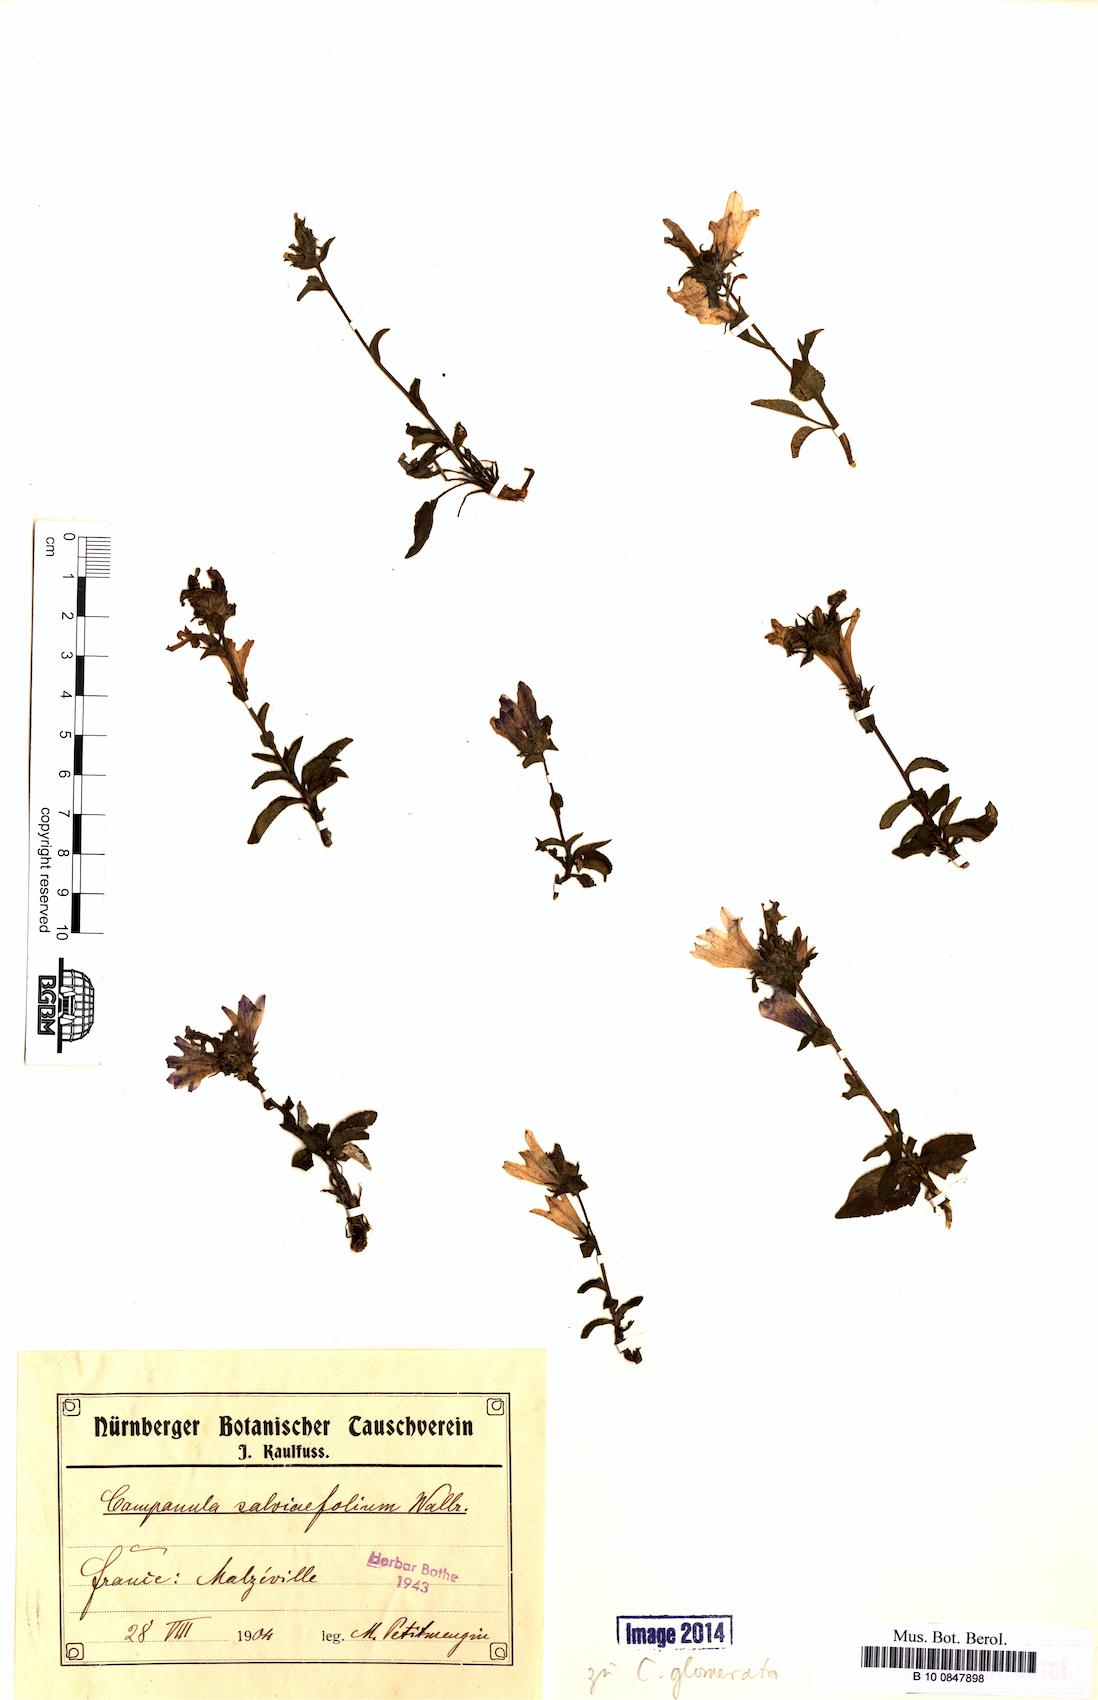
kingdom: Plantae
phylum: Tracheophyta
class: Magnoliopsida
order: Asterales
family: Campanulaceae
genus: Campanula
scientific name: Campanula glomerata
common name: Clustered bellflower
